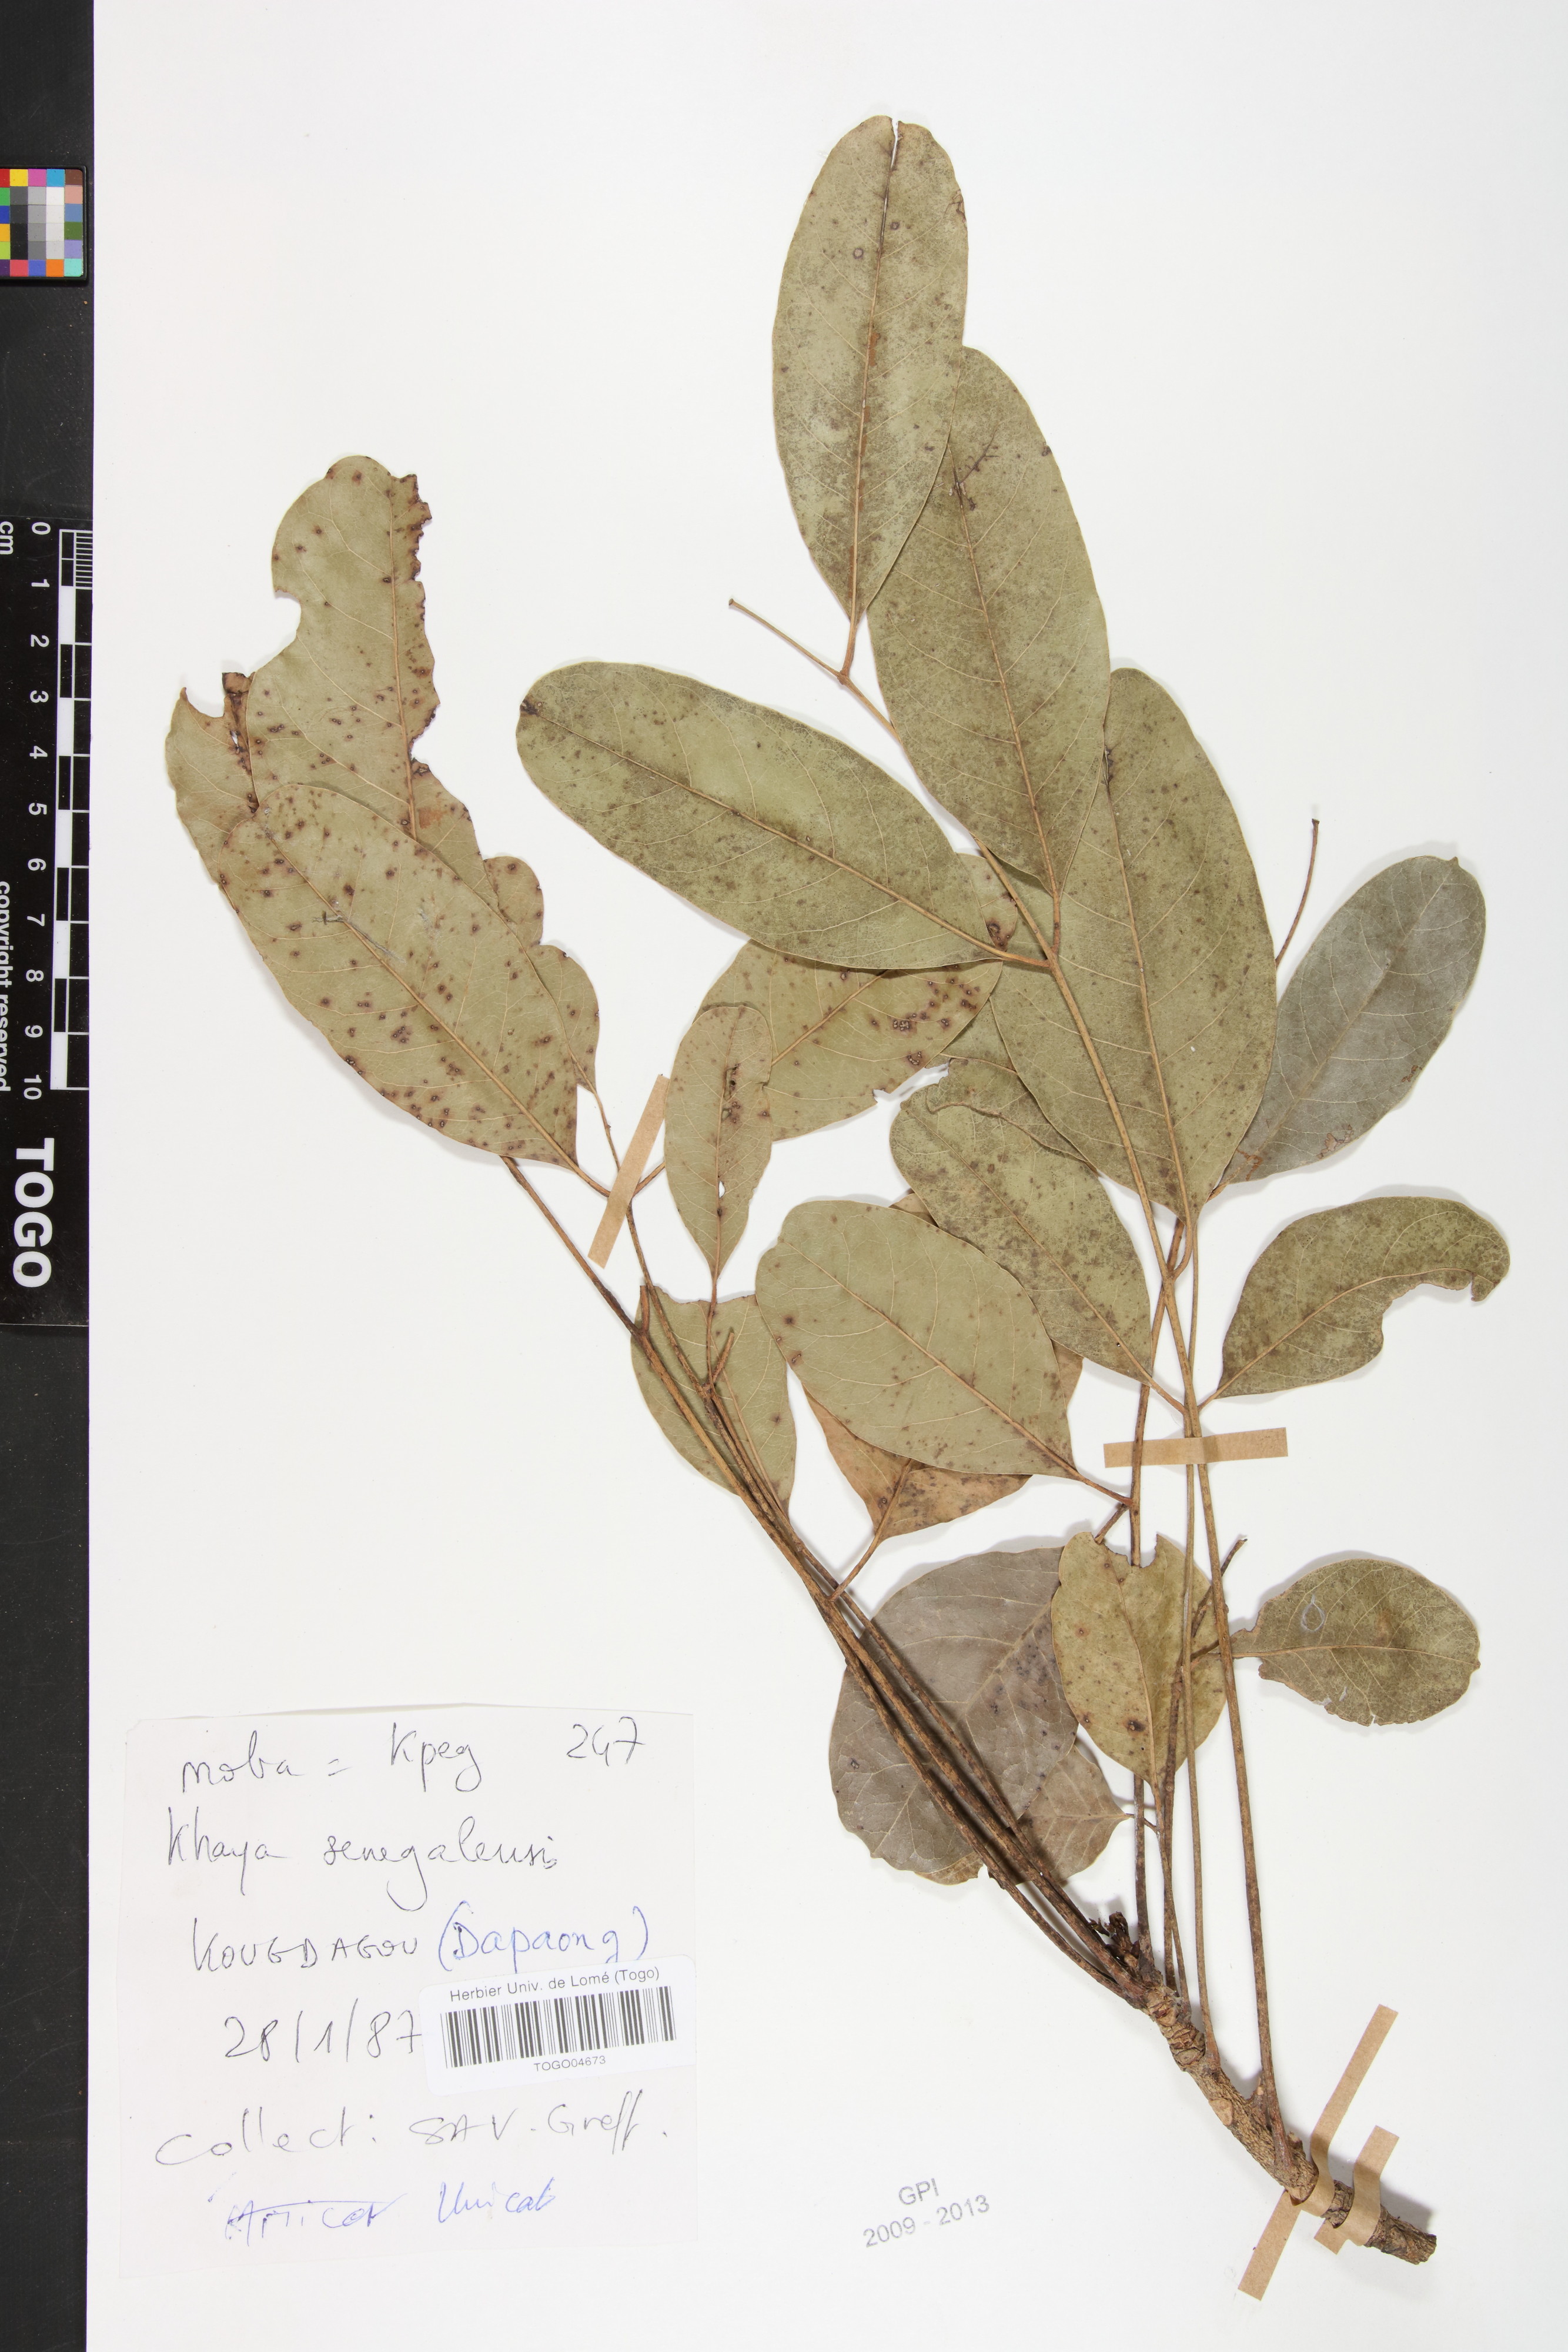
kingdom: Plantae
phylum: Tracheophyta
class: Magnoliopsida
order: Sapindales
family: Meliaceae
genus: Khaya
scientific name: Khaya senegalensis
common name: Senegal mahogany
